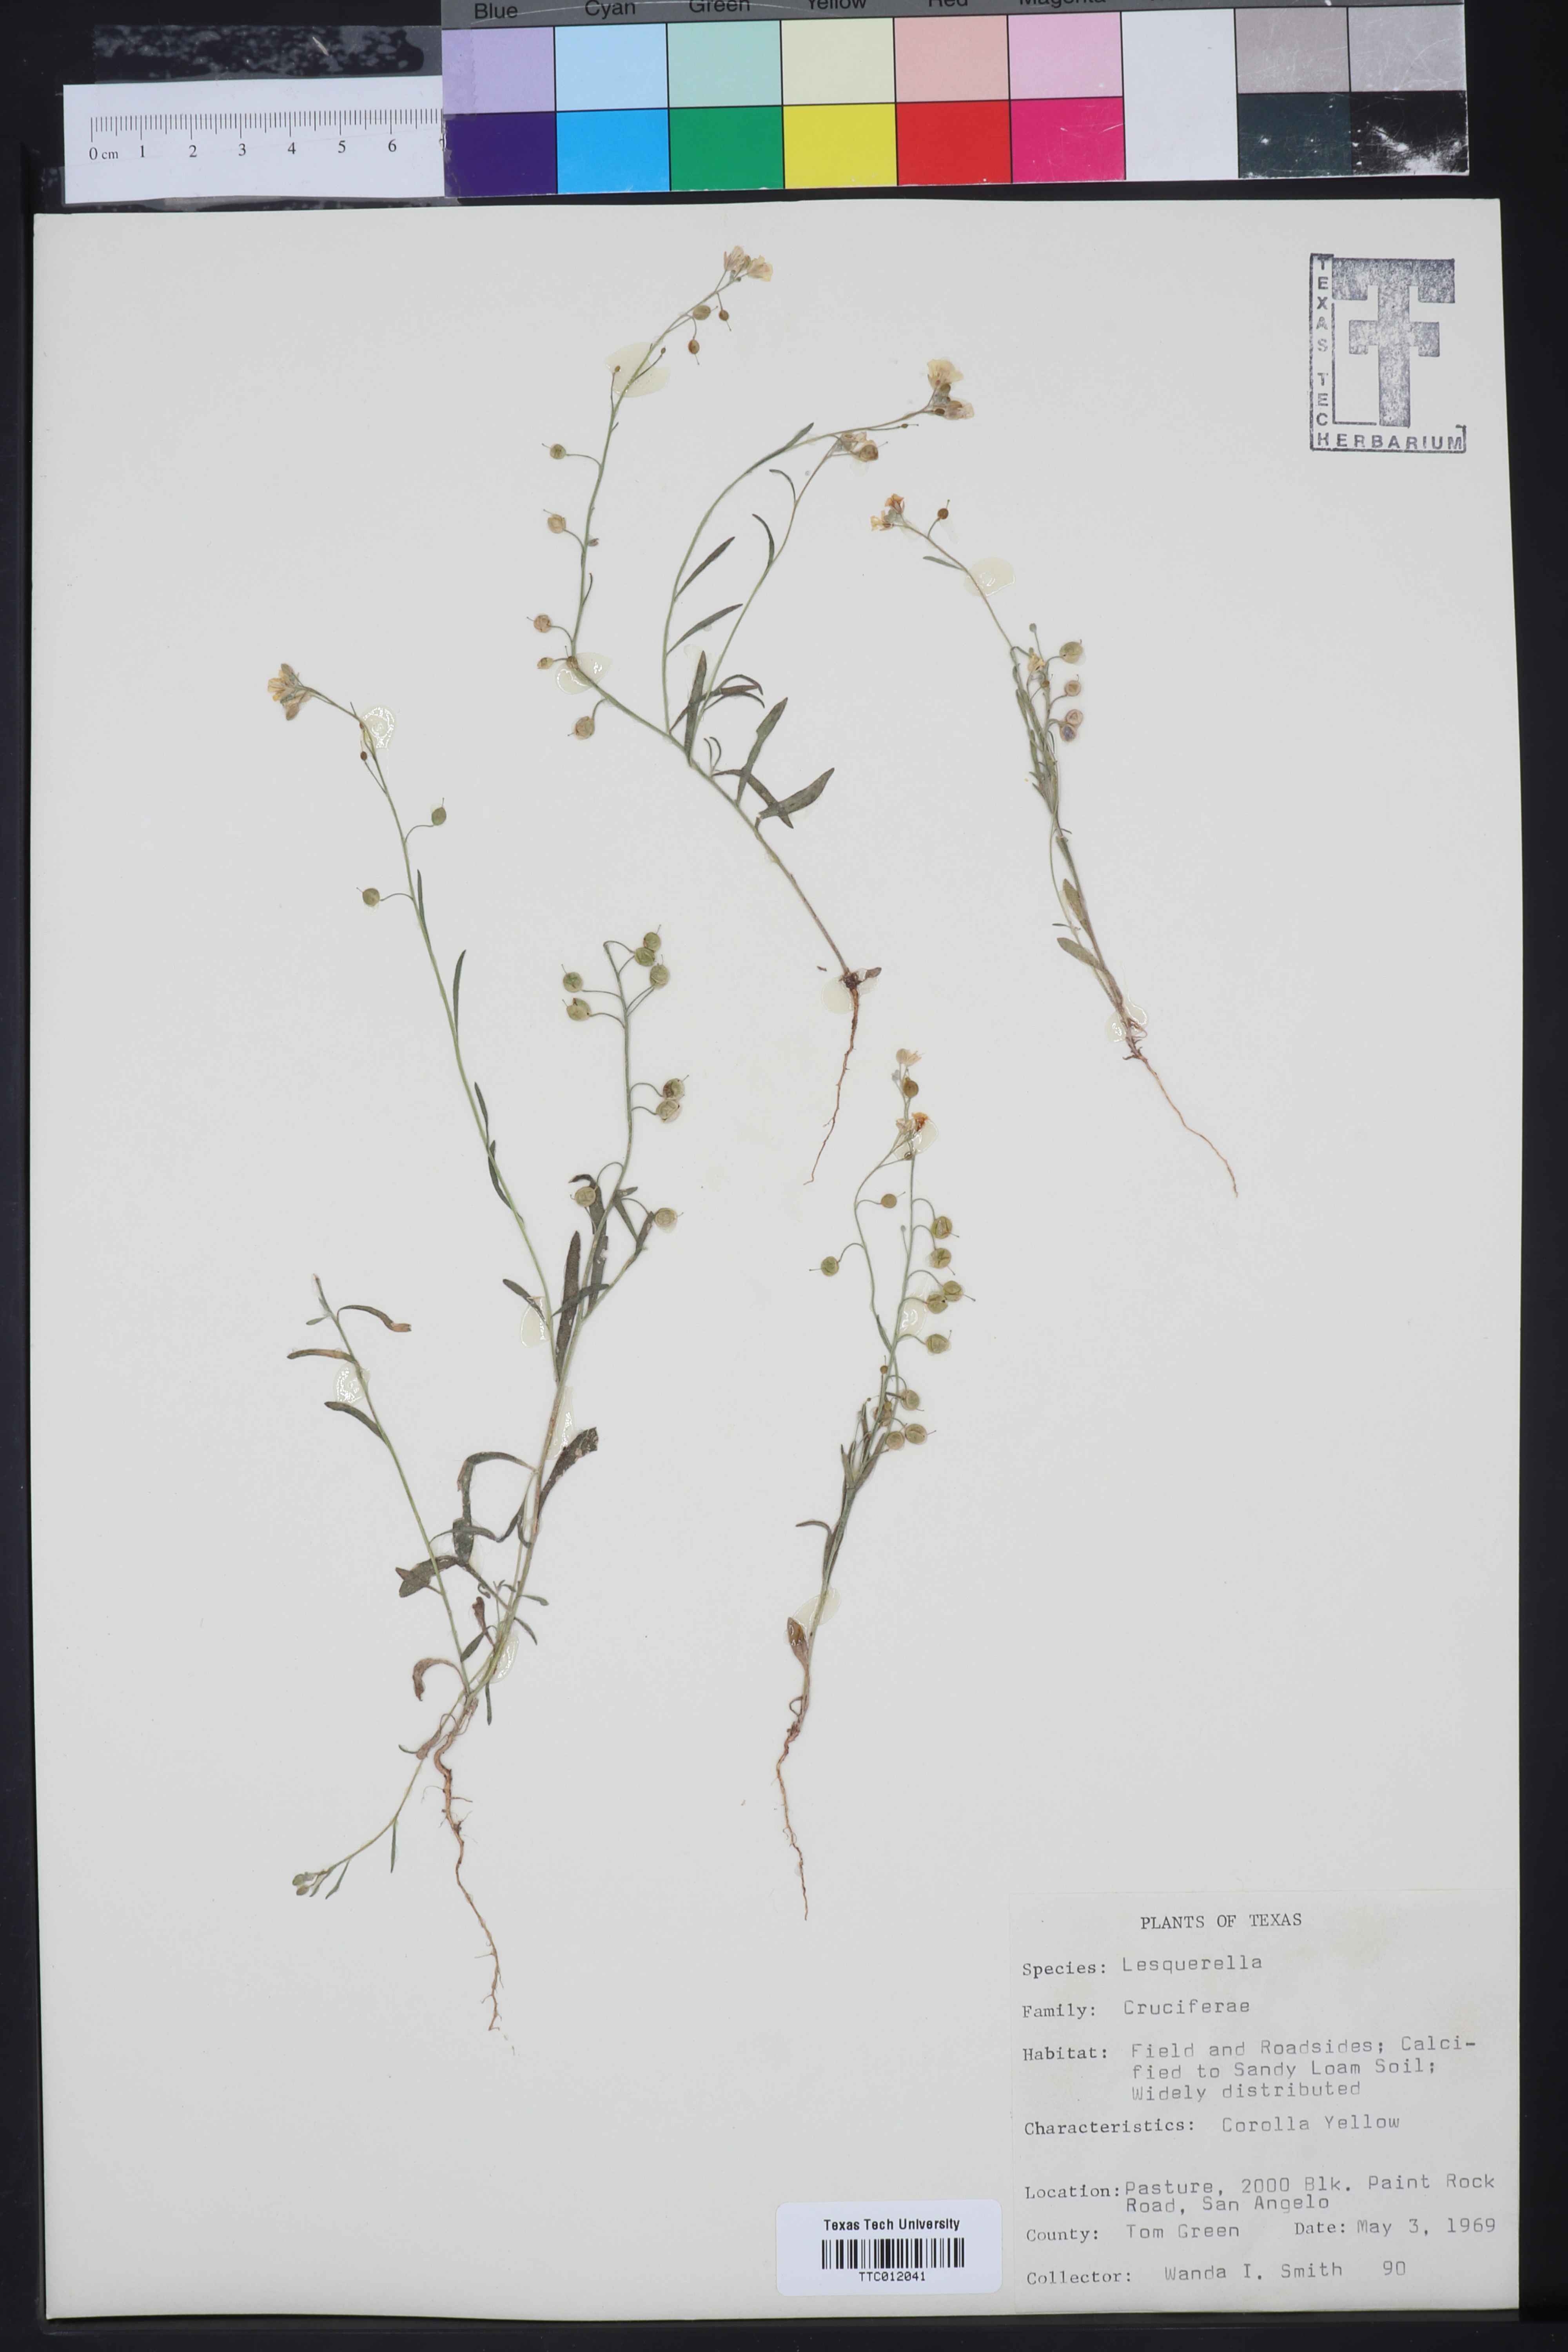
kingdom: Chromista
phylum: Cercozoa
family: Psammonobiotidae
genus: Lesquerella
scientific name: Lesquerella
